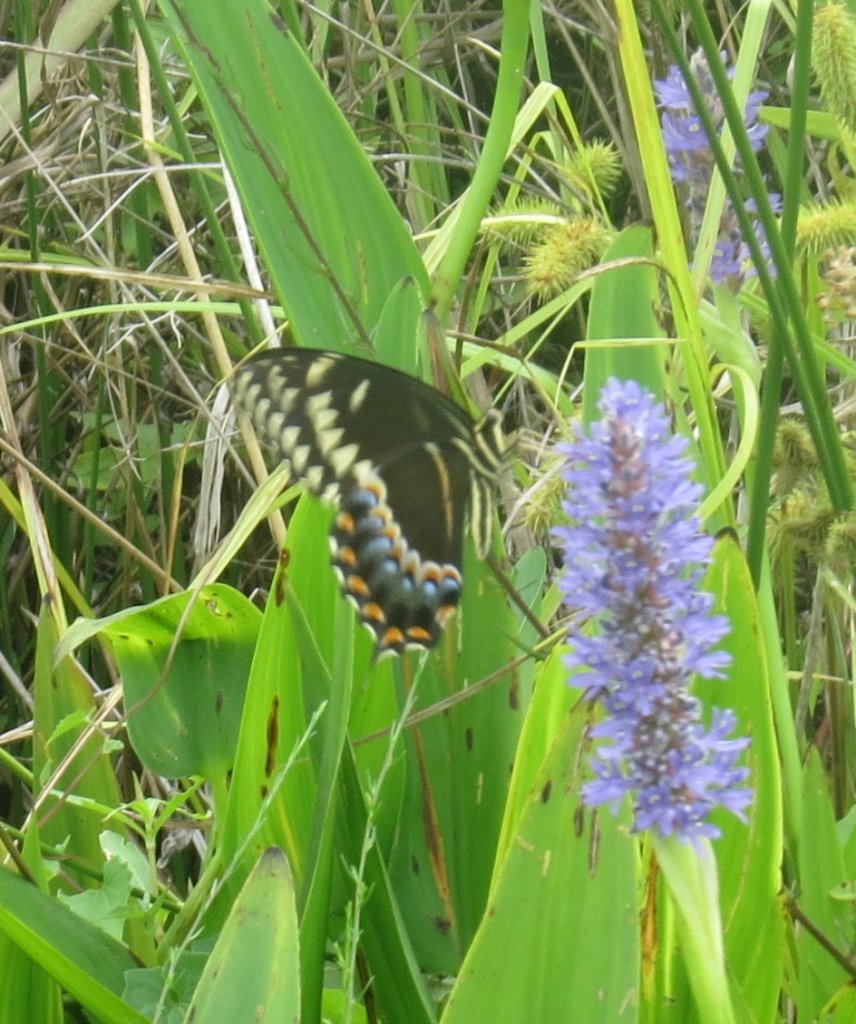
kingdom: Animalia
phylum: Arthropoda
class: Insecta
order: Lepidoptera
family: Papilionidae
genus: Pterourus
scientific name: Pterourus palamedes
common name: Palamedes Swallowtail
